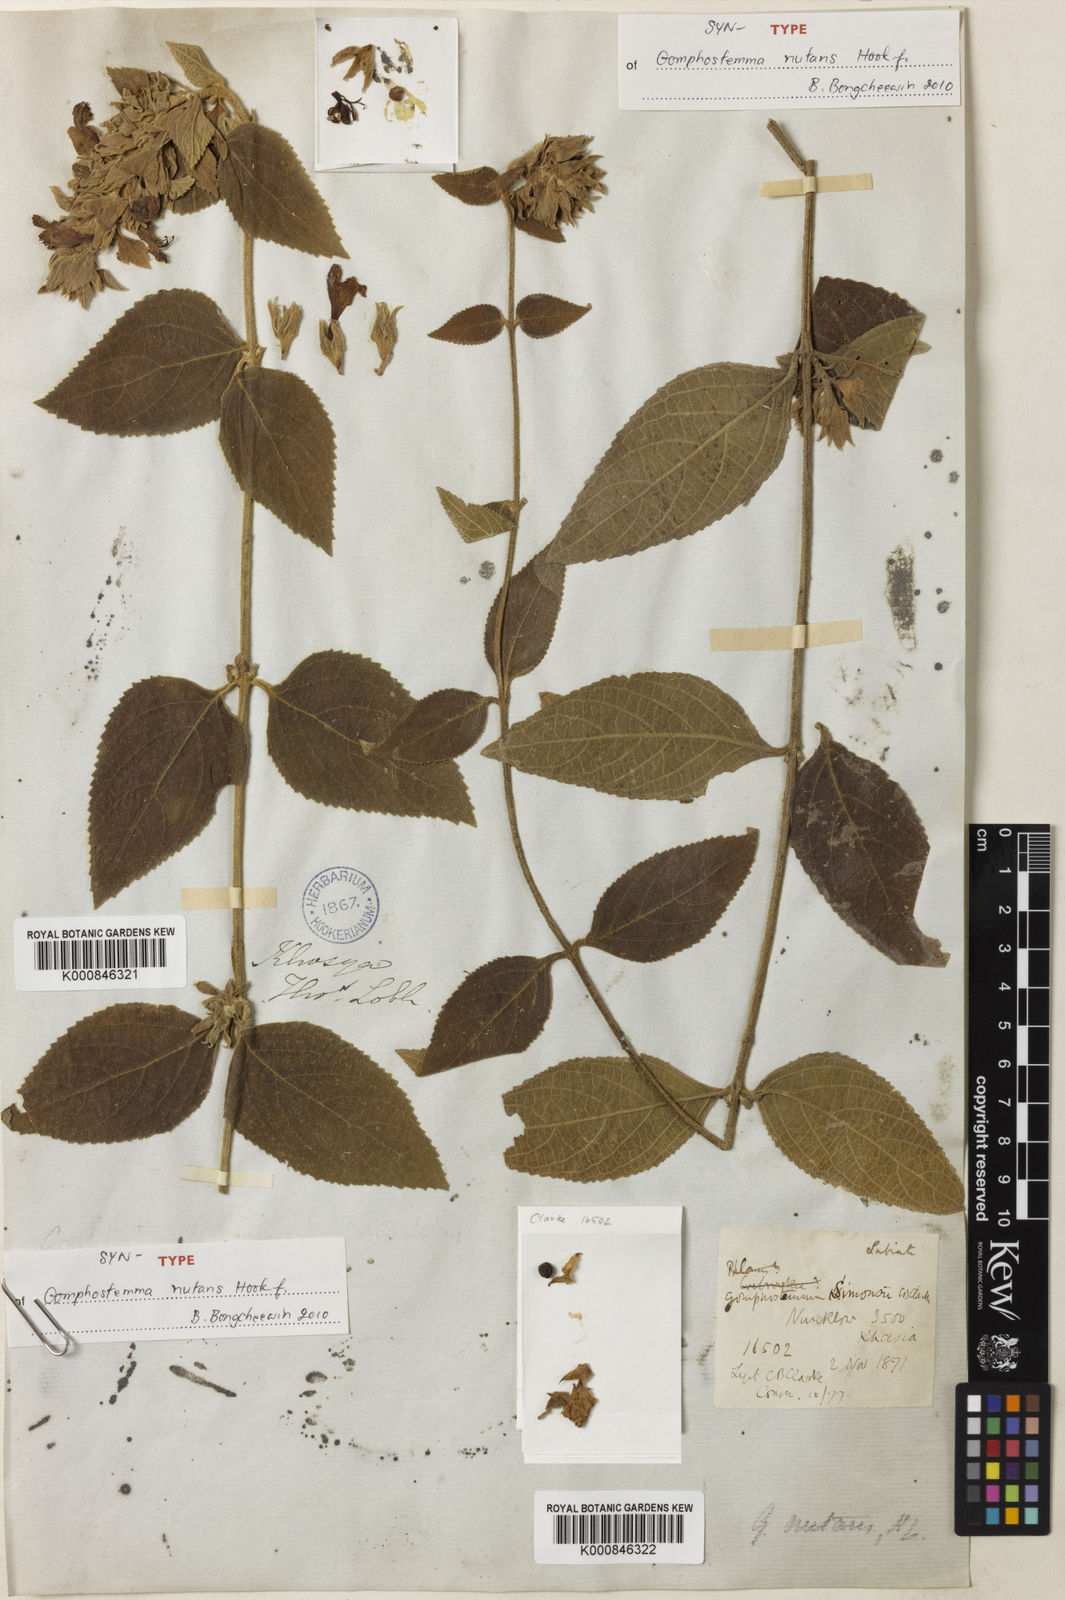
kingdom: Plantae
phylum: Tracheophyta
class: Magnoliopsida
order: Lamiales
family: Lamiaceae
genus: Gomphostemma
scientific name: Gomphostemma nutans
